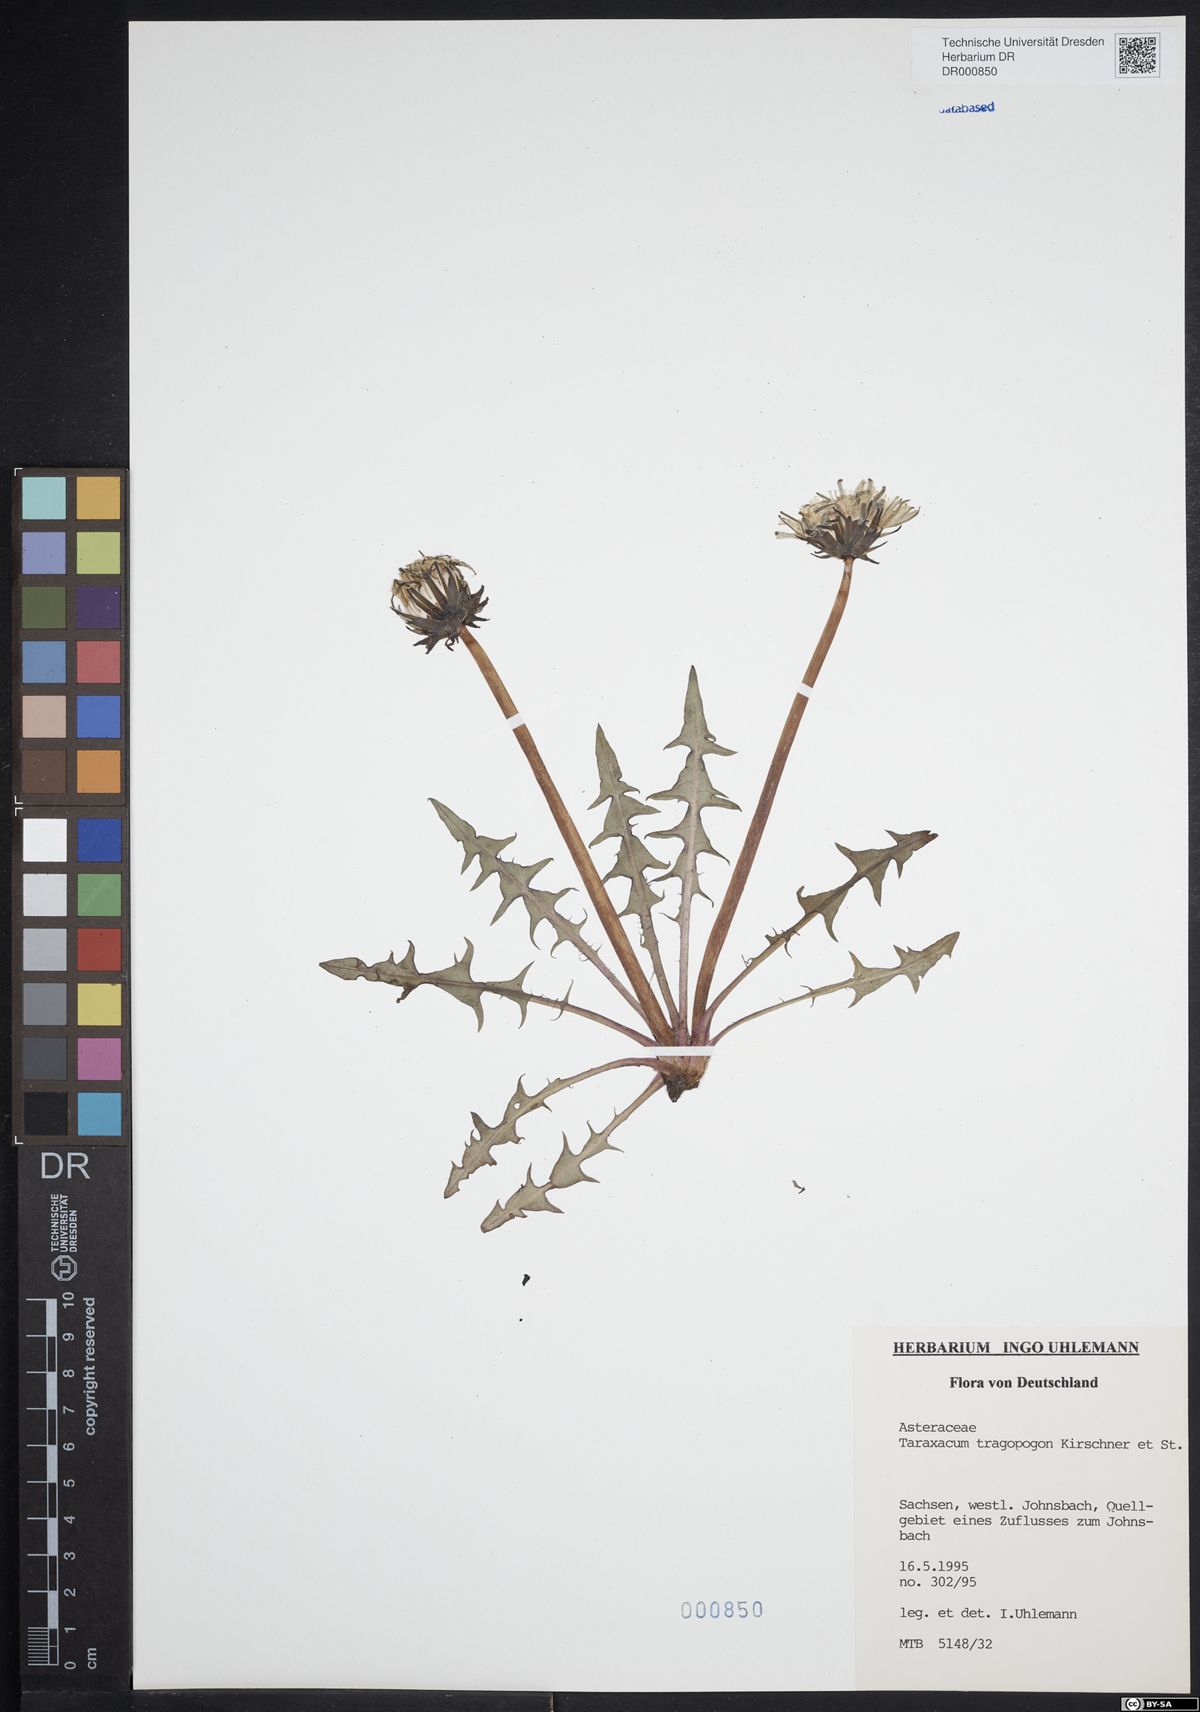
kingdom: Plantae
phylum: Tracheophyta
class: Magnoliopsida
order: Asterales
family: Asteraceae
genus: Taraxacum
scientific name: Taraxacum porrigentilobatum
